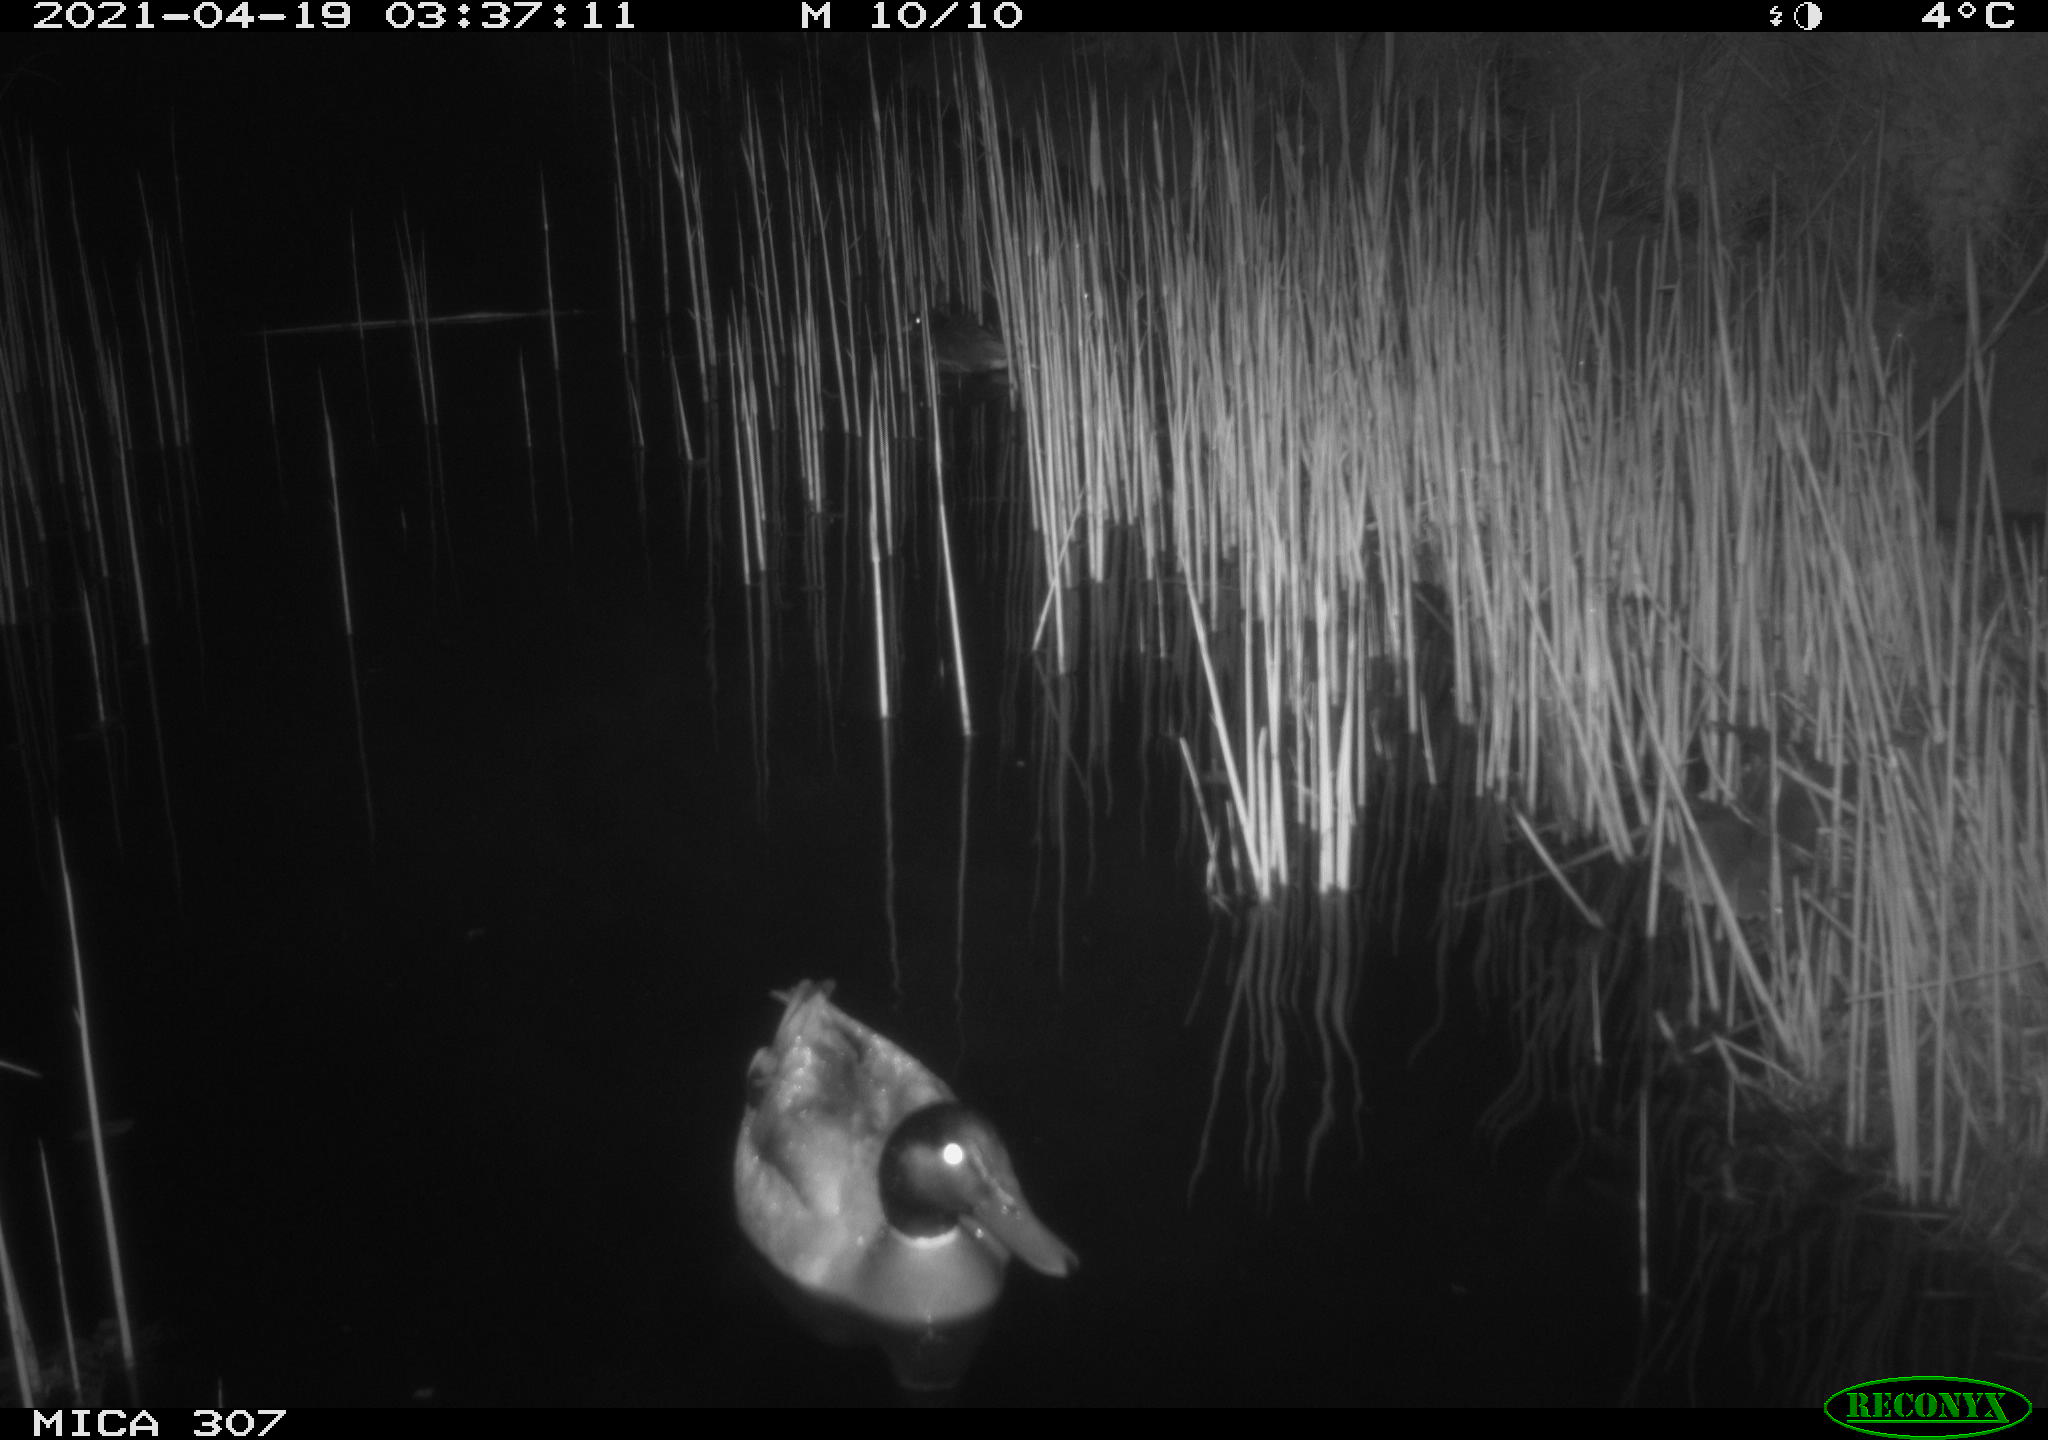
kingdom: Animalia
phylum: Chordata
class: Aves
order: Gruiformes
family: Rallidae
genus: Gallinula
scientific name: Gallinula chloropus
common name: Common moorhen
